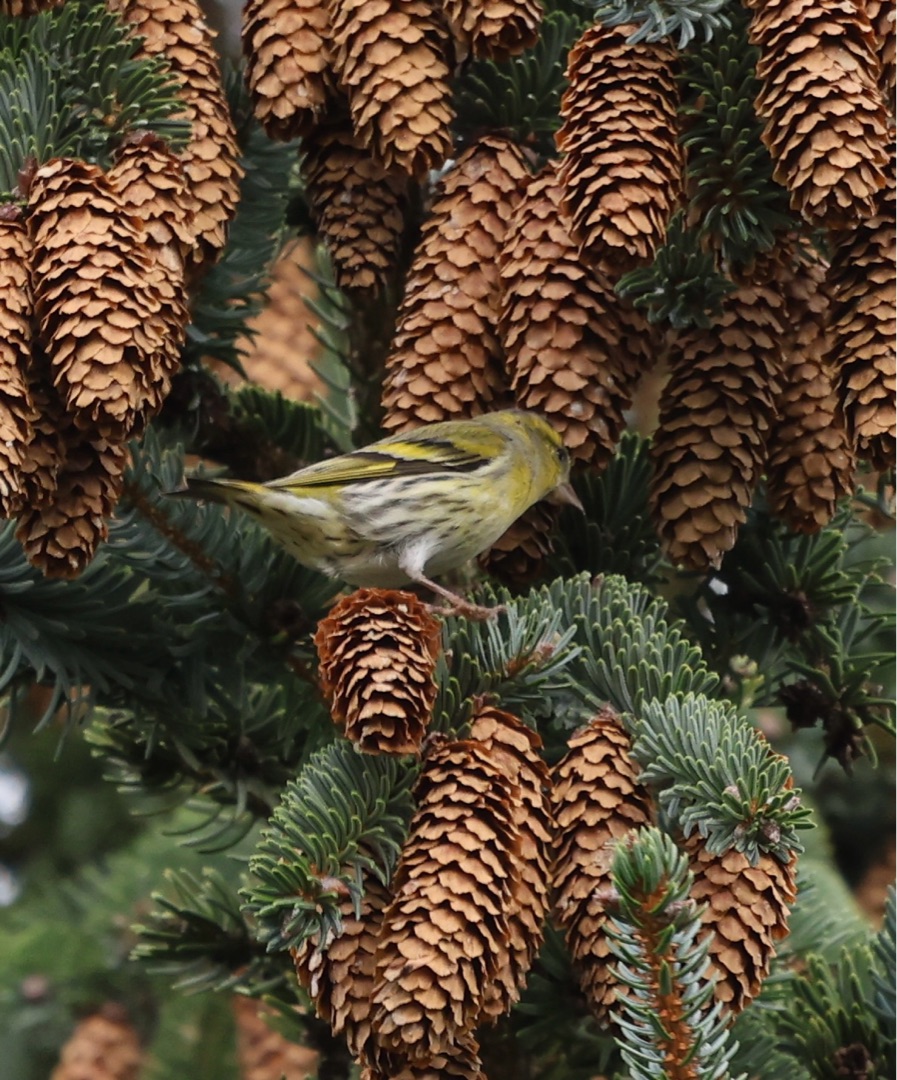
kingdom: Animalia
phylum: Chordata
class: Aves
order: Passeriformes
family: Fringillidae
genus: Spinus
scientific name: Spinus spinus
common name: Grønsisken
